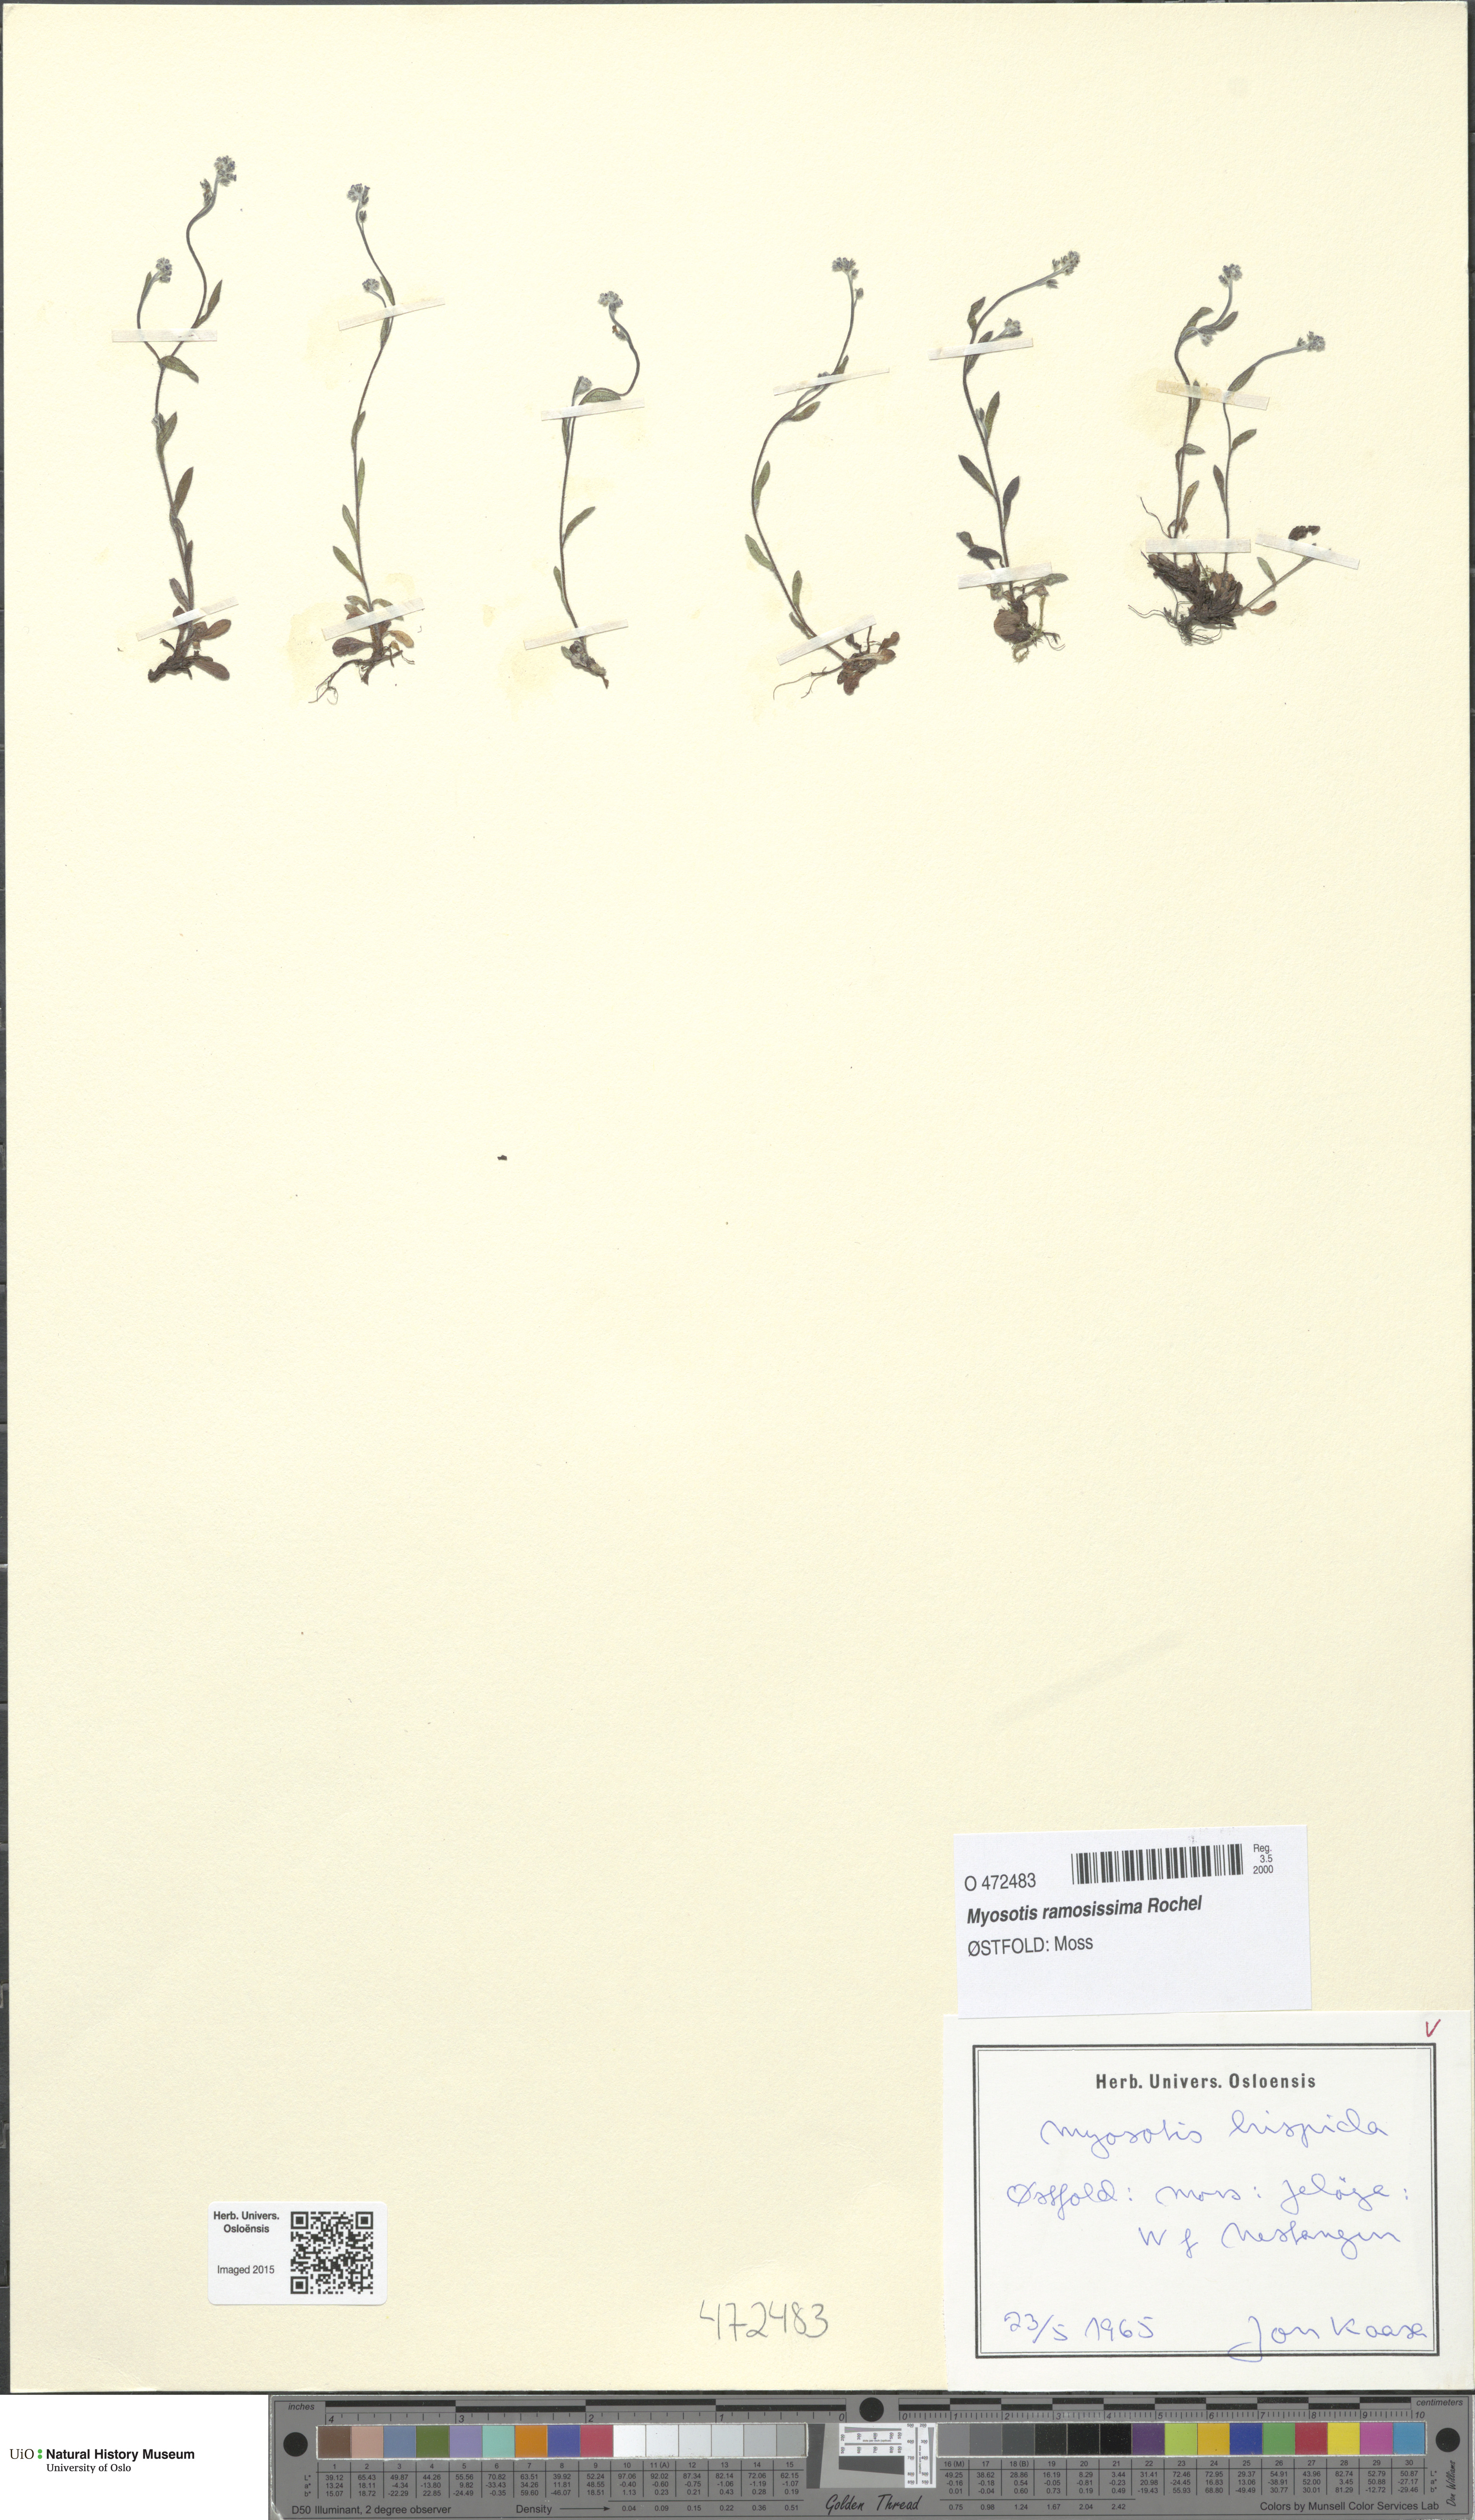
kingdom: Plantae
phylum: Tracheophyta
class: Magnoliopsida
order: Boraginales
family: Boraginaceae
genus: Myosotis
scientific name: Myosotis ramosissima
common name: Early forget-me-not
